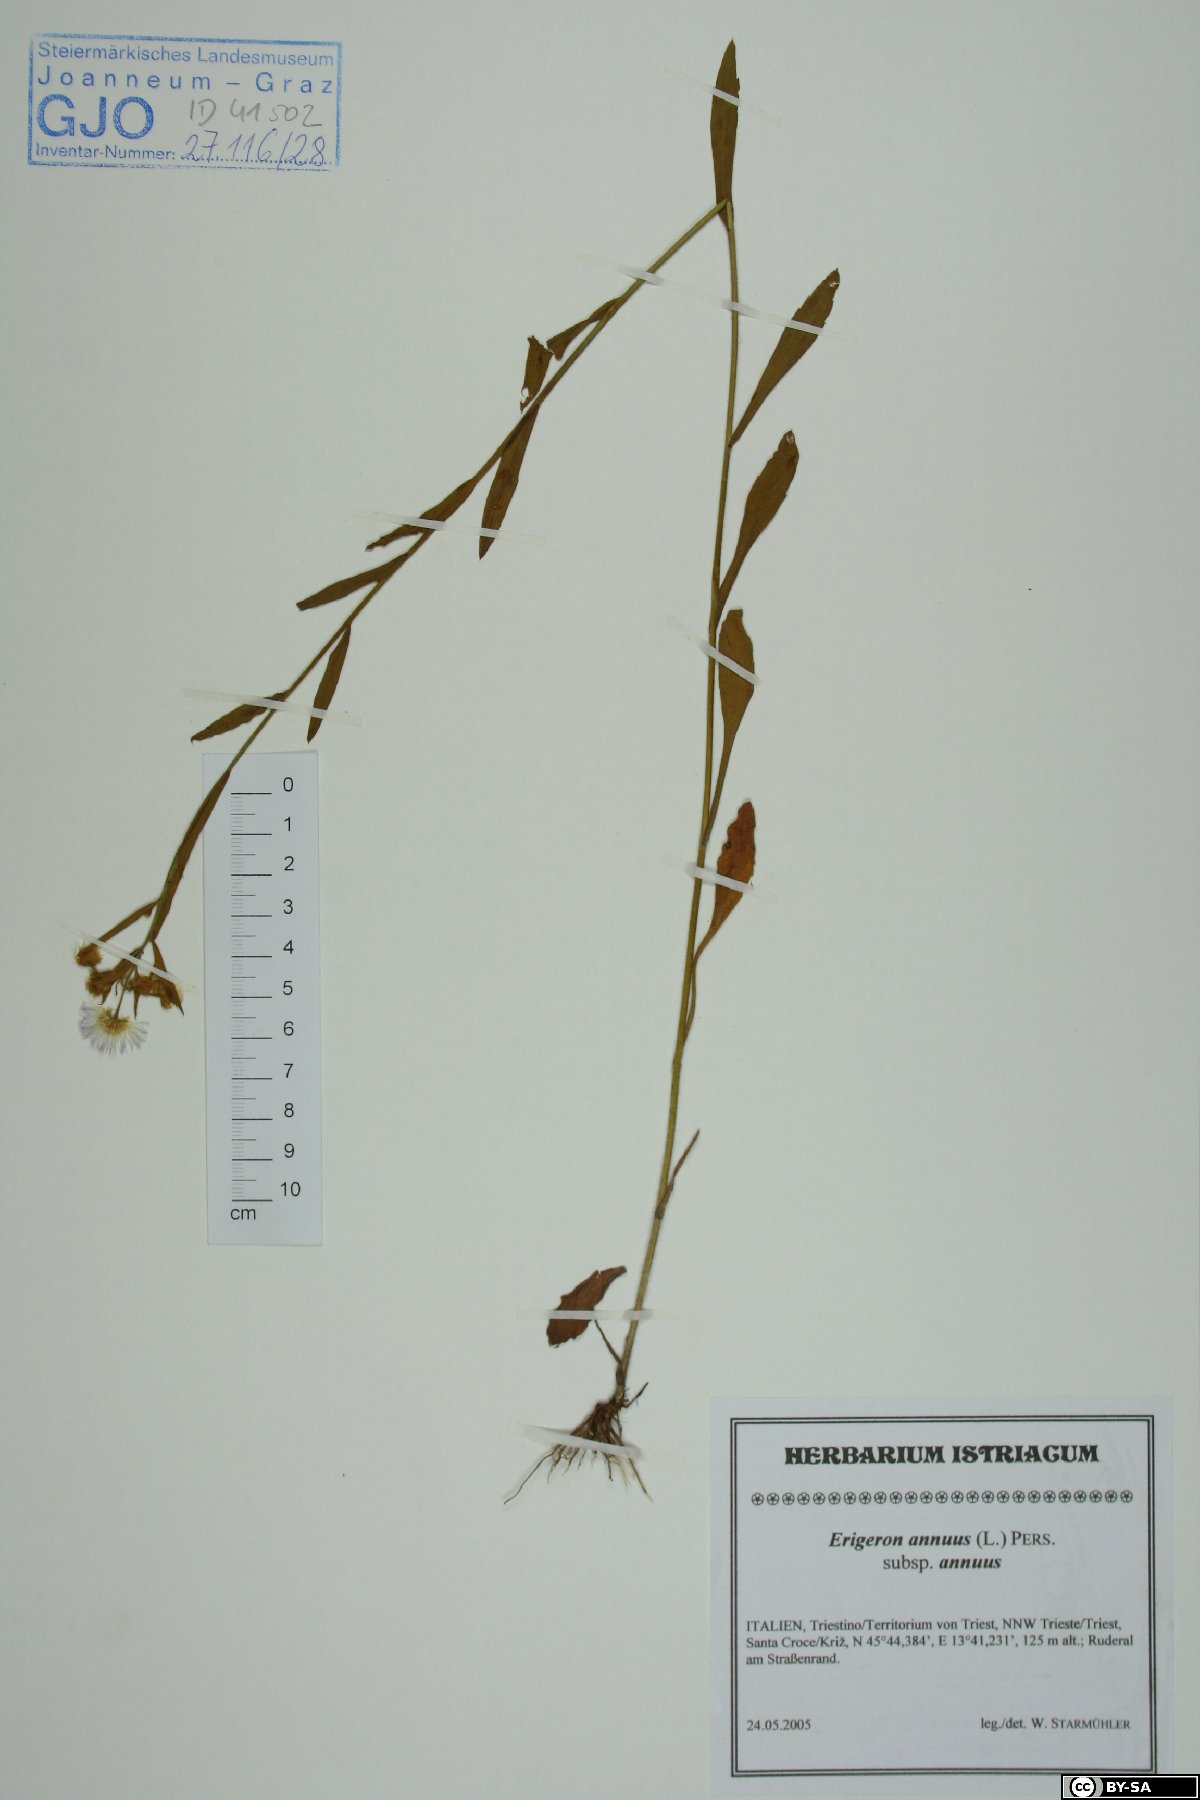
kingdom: Plantae
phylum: Tracheophyta
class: Magnoliopsida
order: Asterales
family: Asteraceae
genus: Erigeron
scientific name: Erigeron annuus
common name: Tall fleabane
